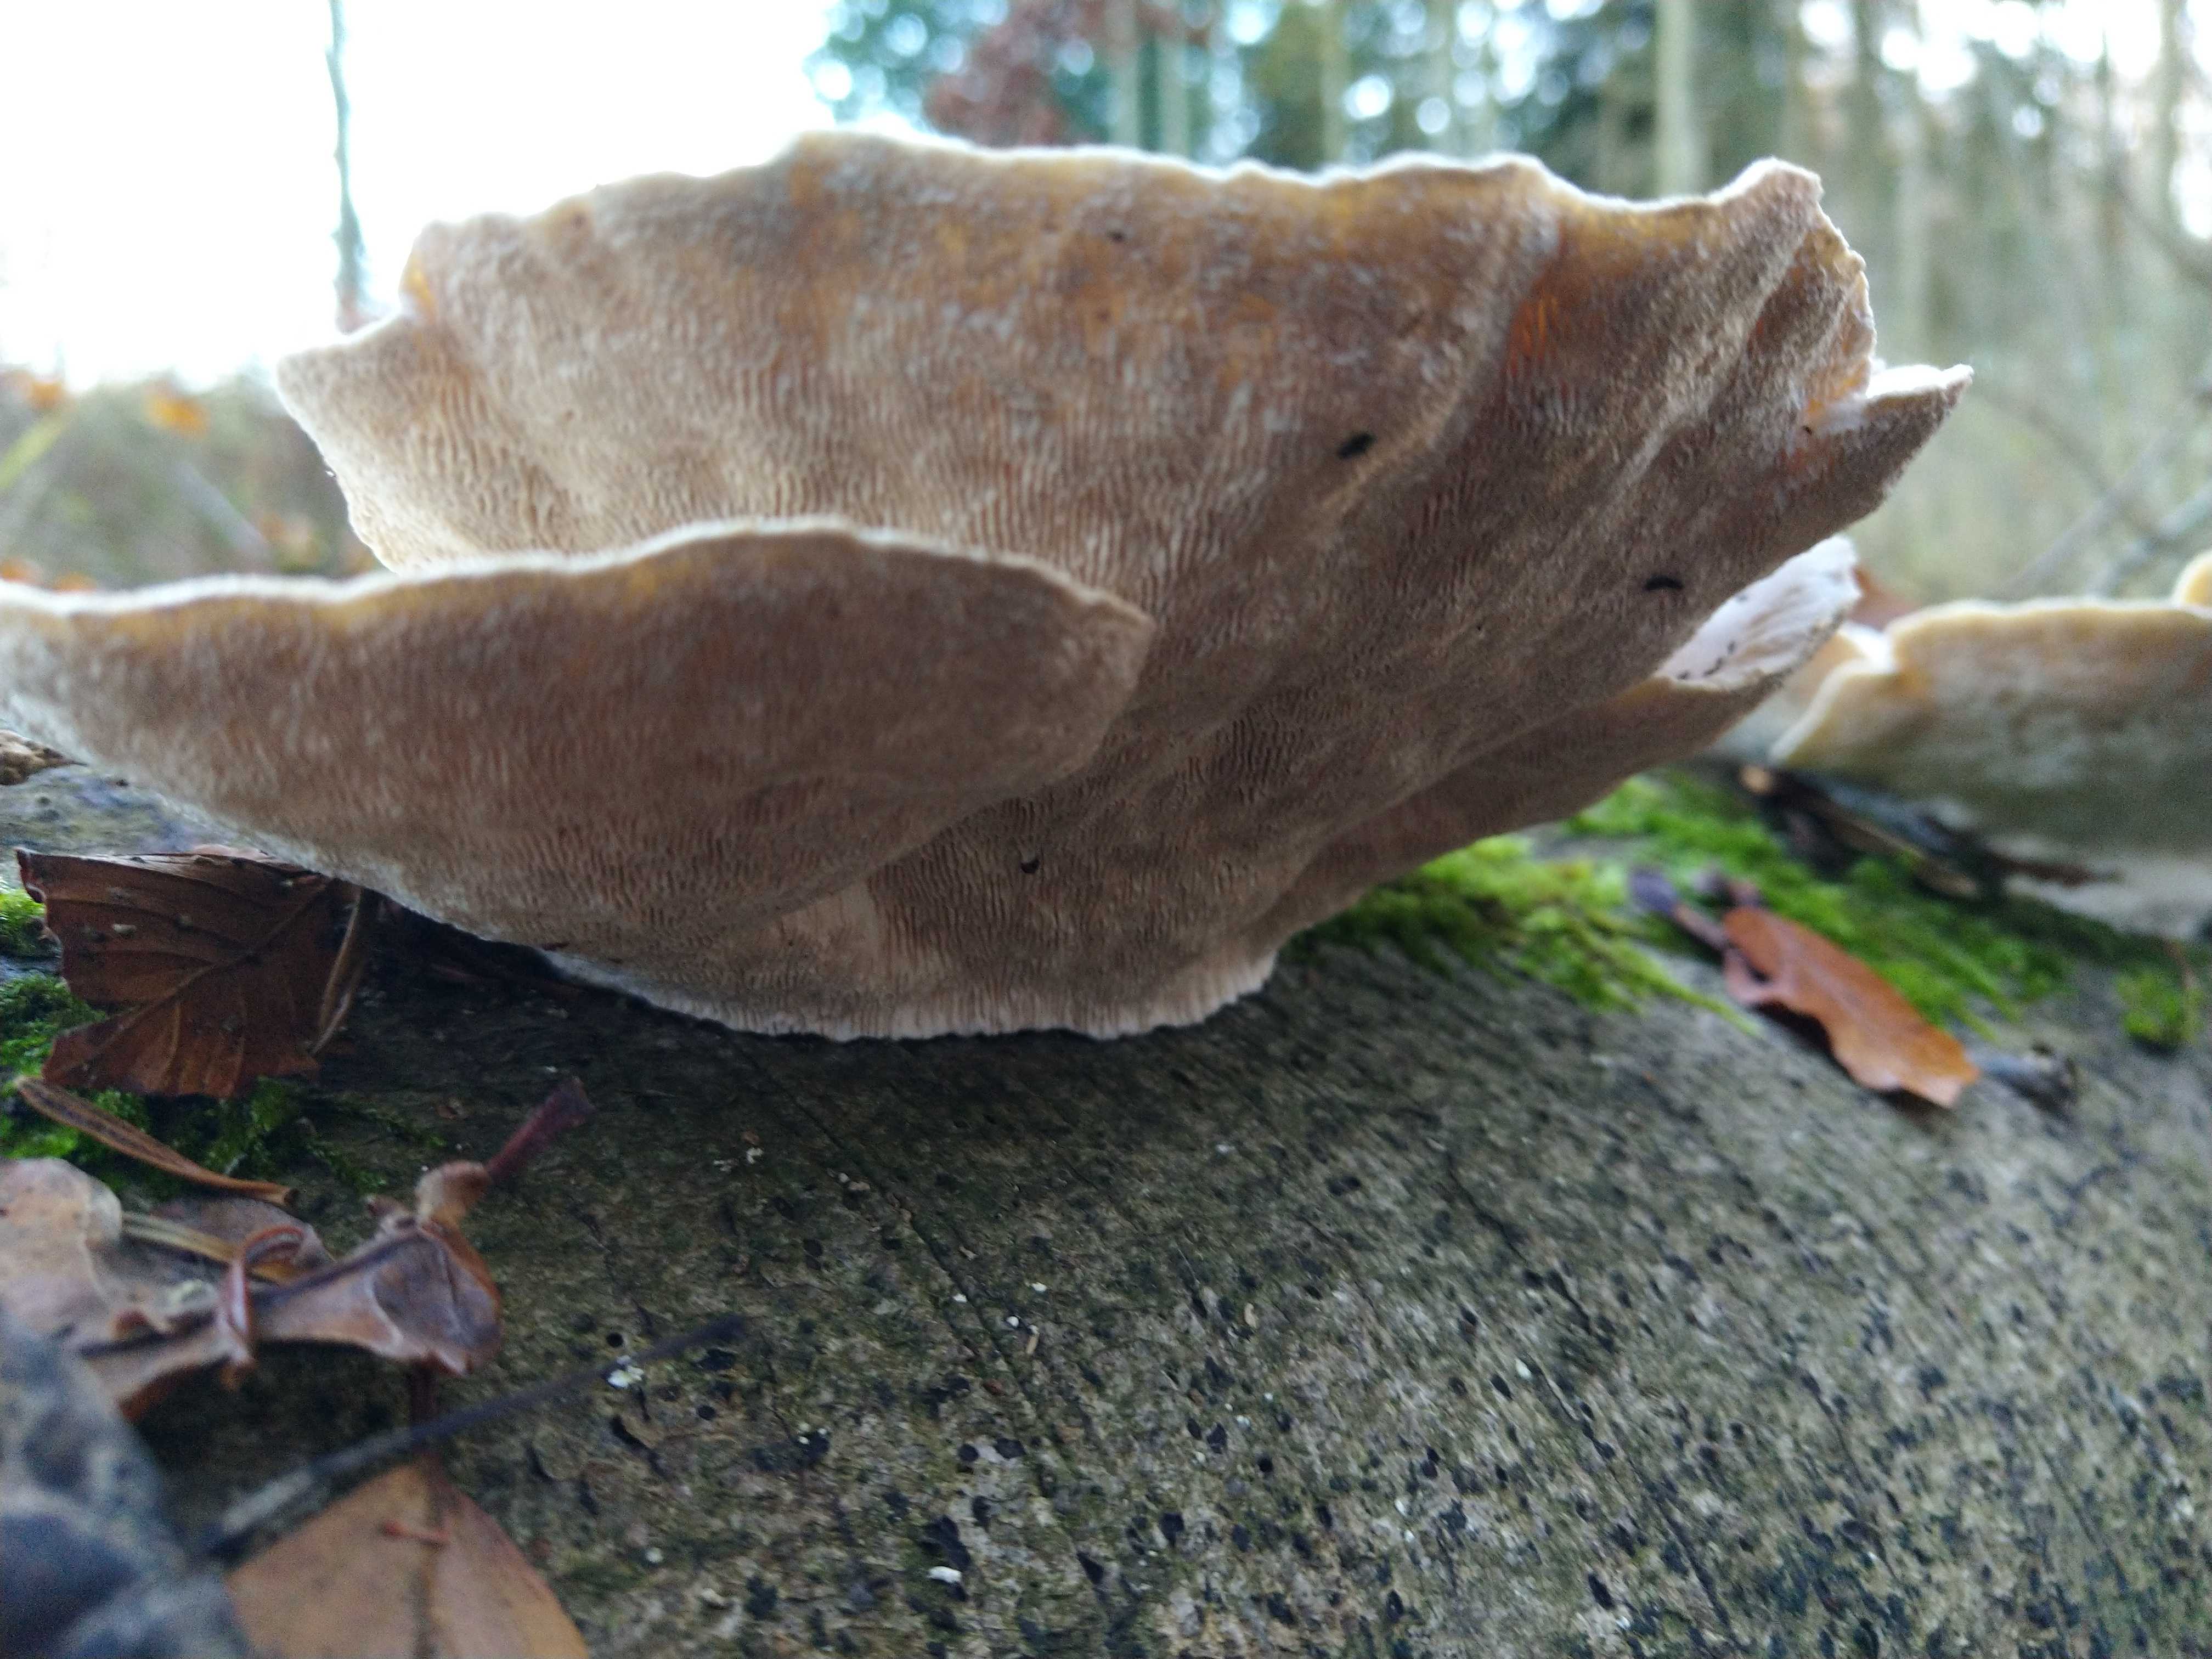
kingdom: Fungi
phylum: Basidiomycota
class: Agaricomycetes
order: Polyporales
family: Polyporaceae
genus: Trametes
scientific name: Trametes gibbosa
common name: puklet læderporesvamp
